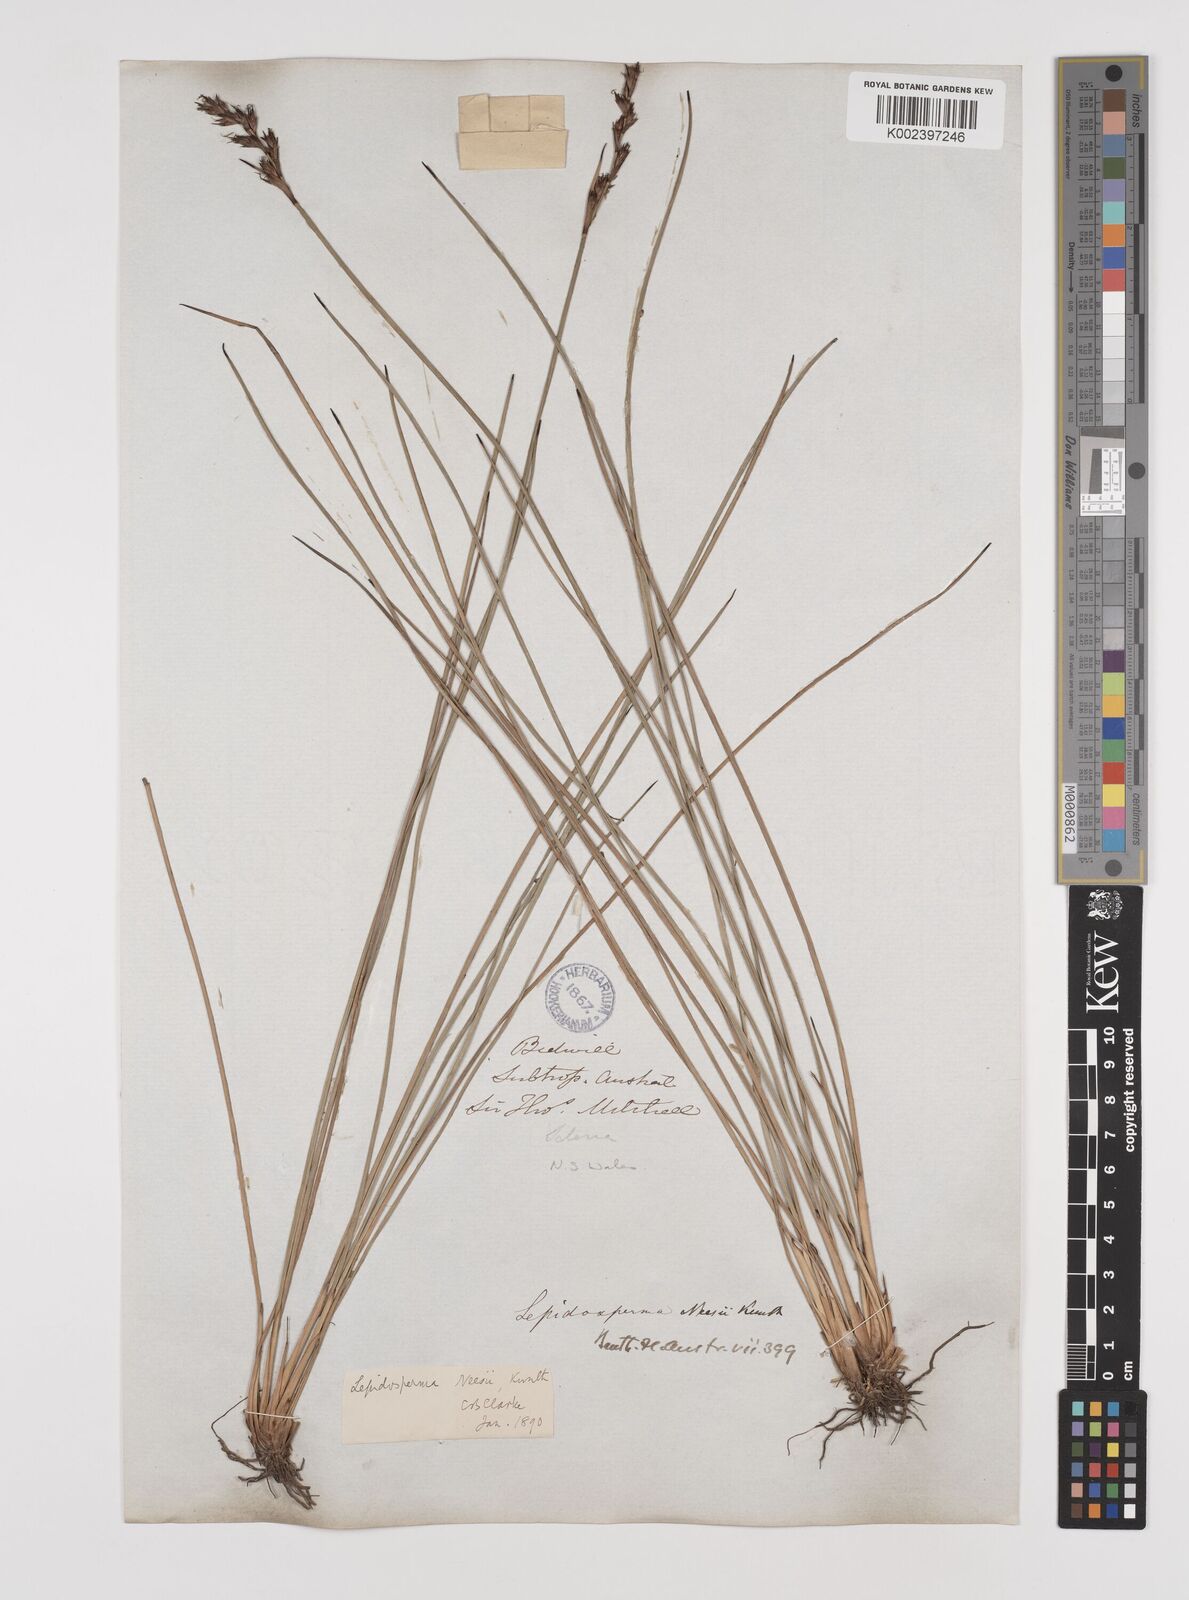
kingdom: Plantae
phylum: Tracheophyta
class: Liliopsida
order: Poales
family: Cyperaceae
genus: Lepidosperma
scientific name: Lepidosperma neesii
